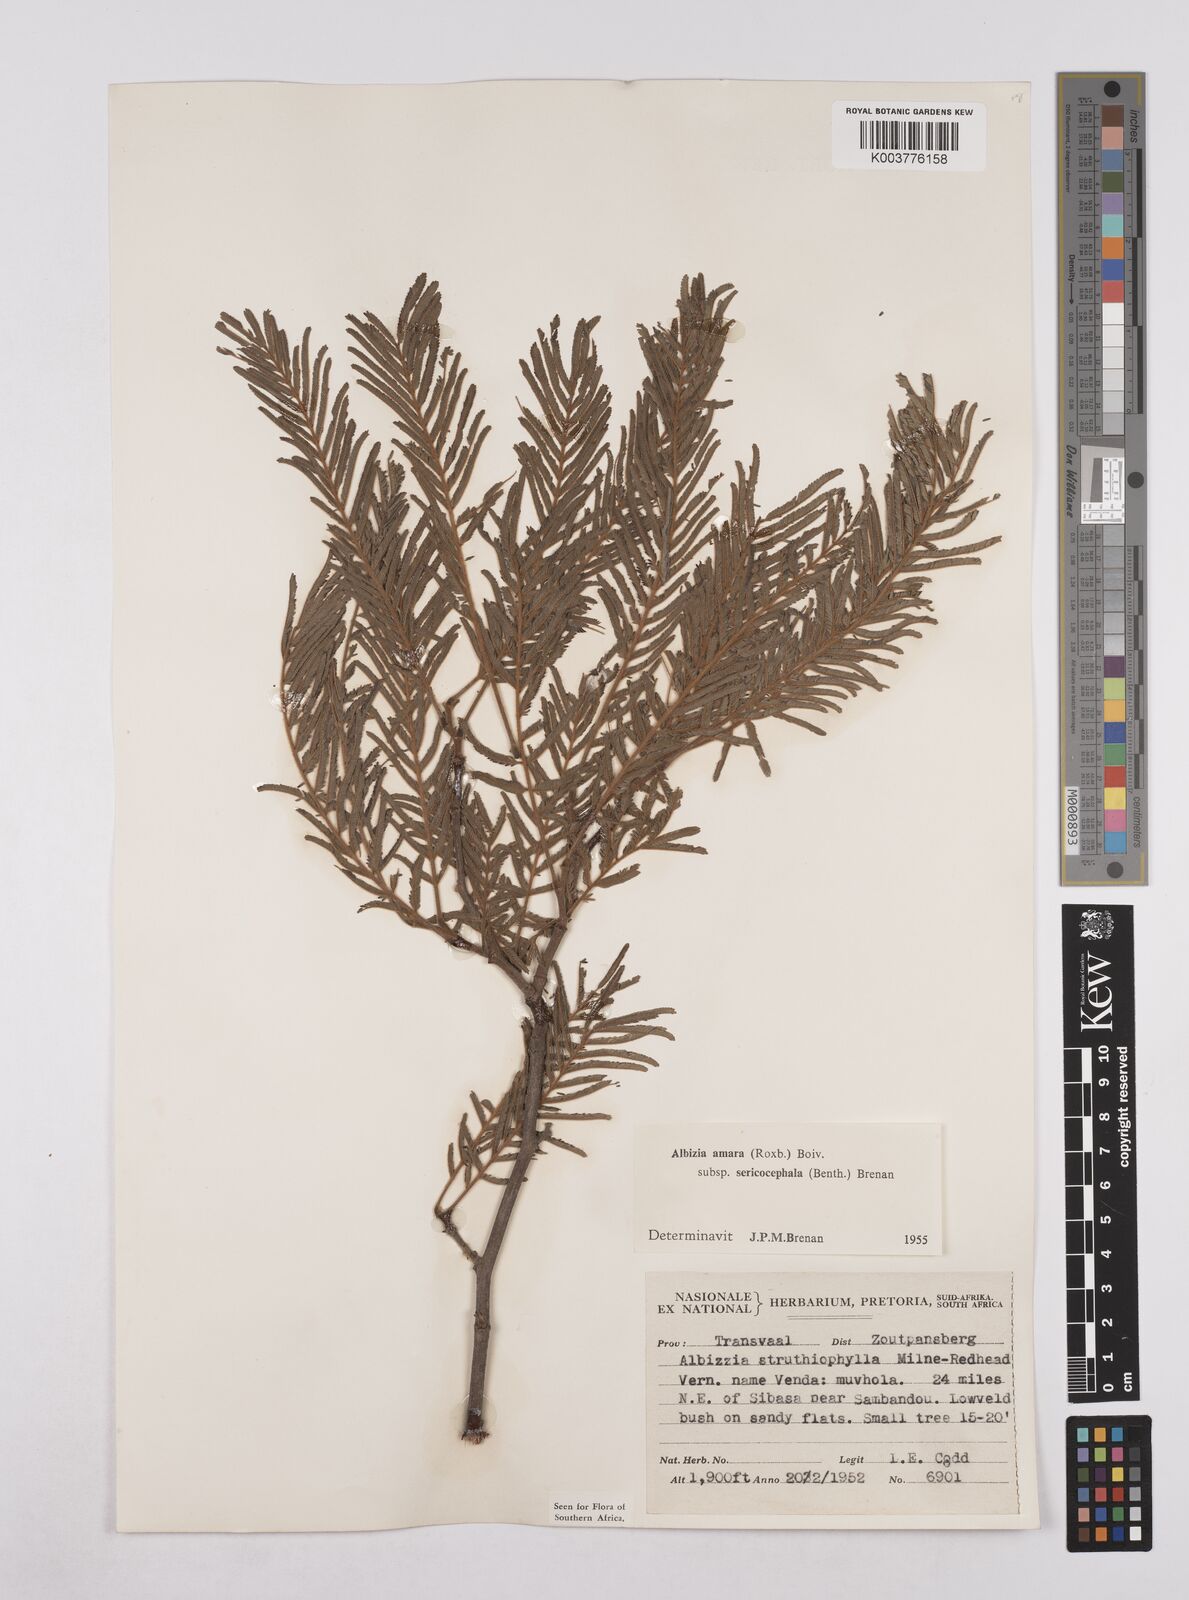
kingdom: Plantae
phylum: Tracheophyta
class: Magnoliopsida
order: Fabales
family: Fabaceae
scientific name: Fabaceae
